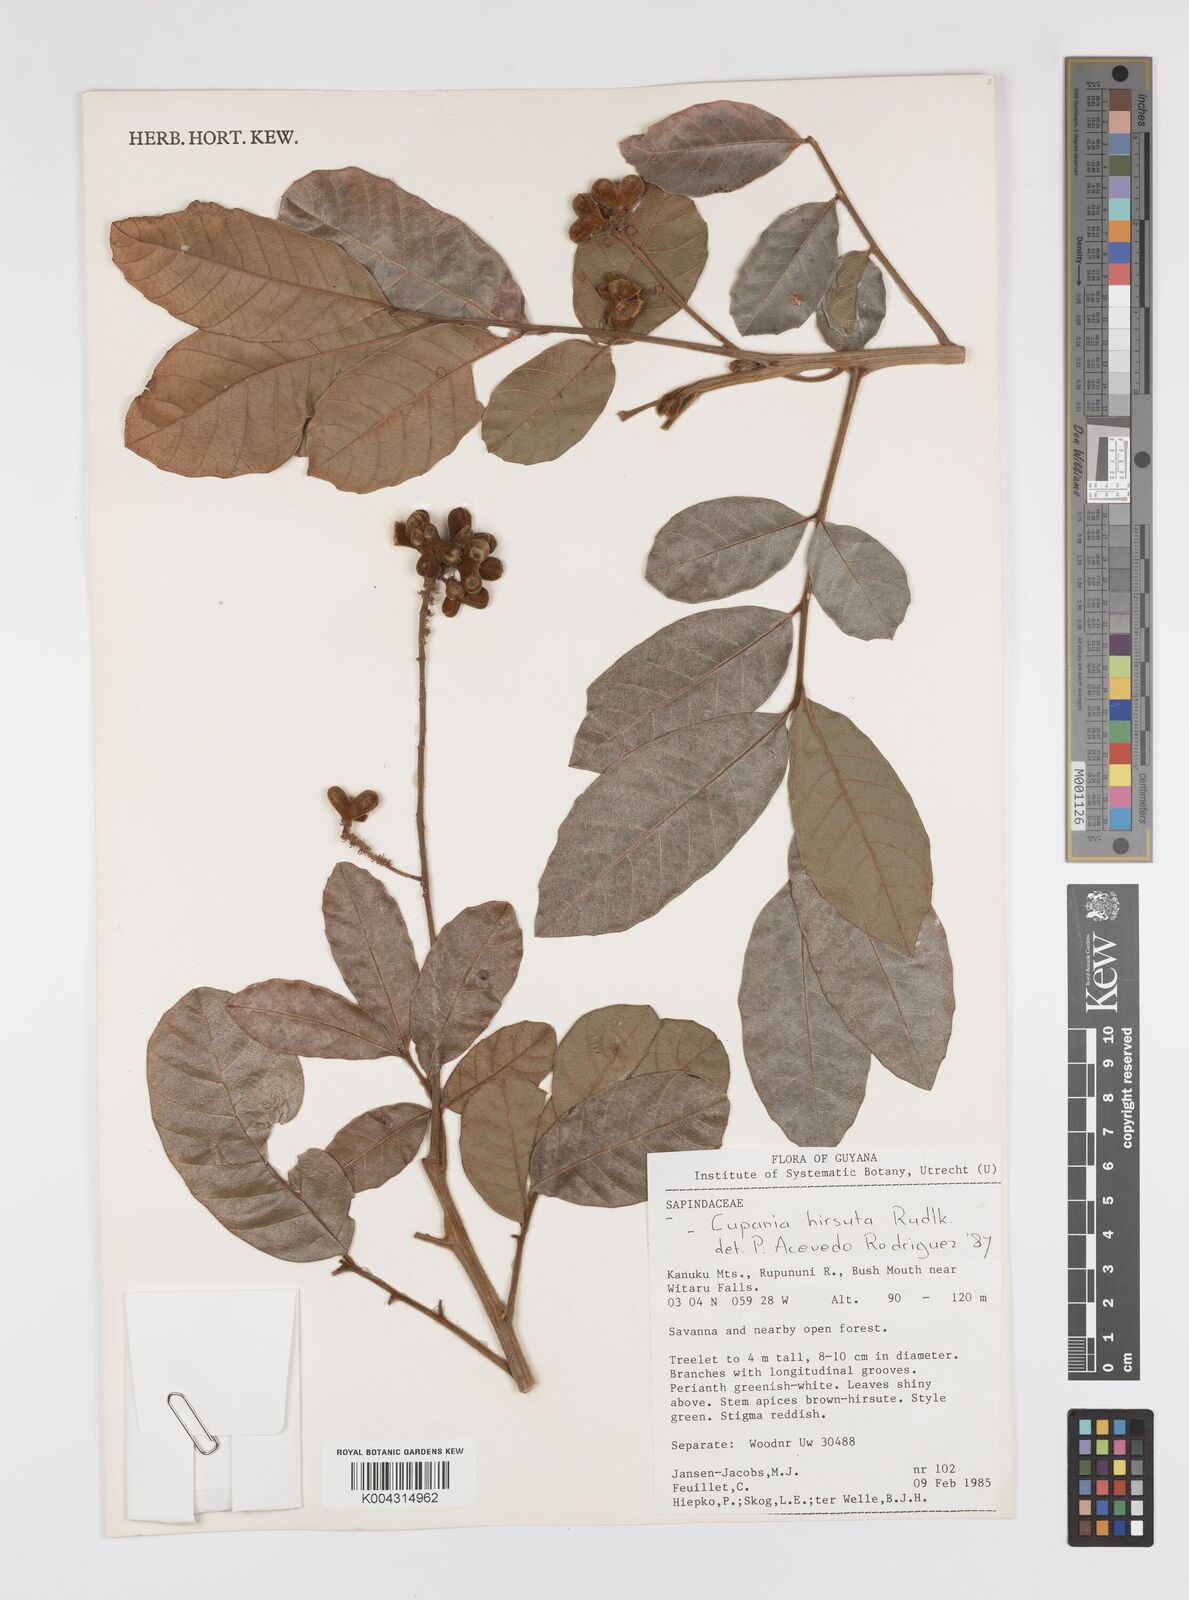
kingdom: Plantae
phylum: Tracheophyta
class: Magnoliopsida
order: Sapindales
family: Sapindaceae
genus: Cupania
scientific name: Cupania
